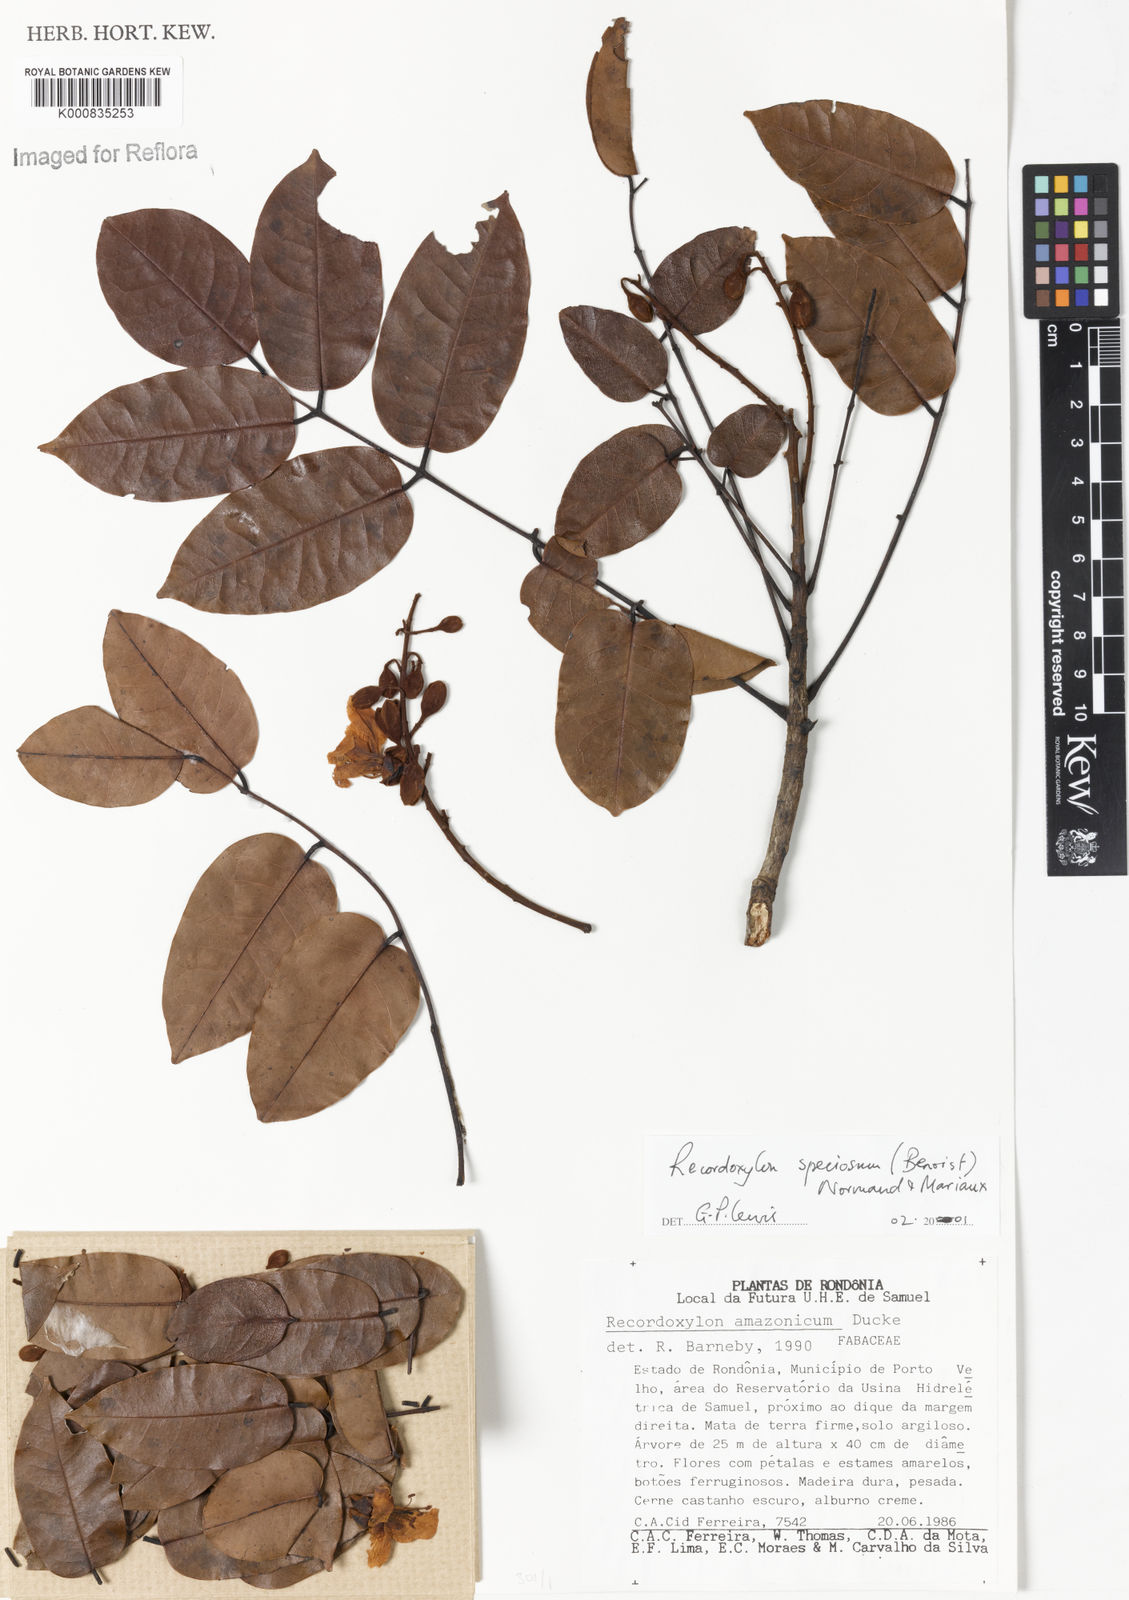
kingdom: Plantae
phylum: Tracheophyta
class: Magnoliopsida
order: Fabales
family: Fabaceae
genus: Recordoxylon
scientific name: Recordoxylon speciosum
